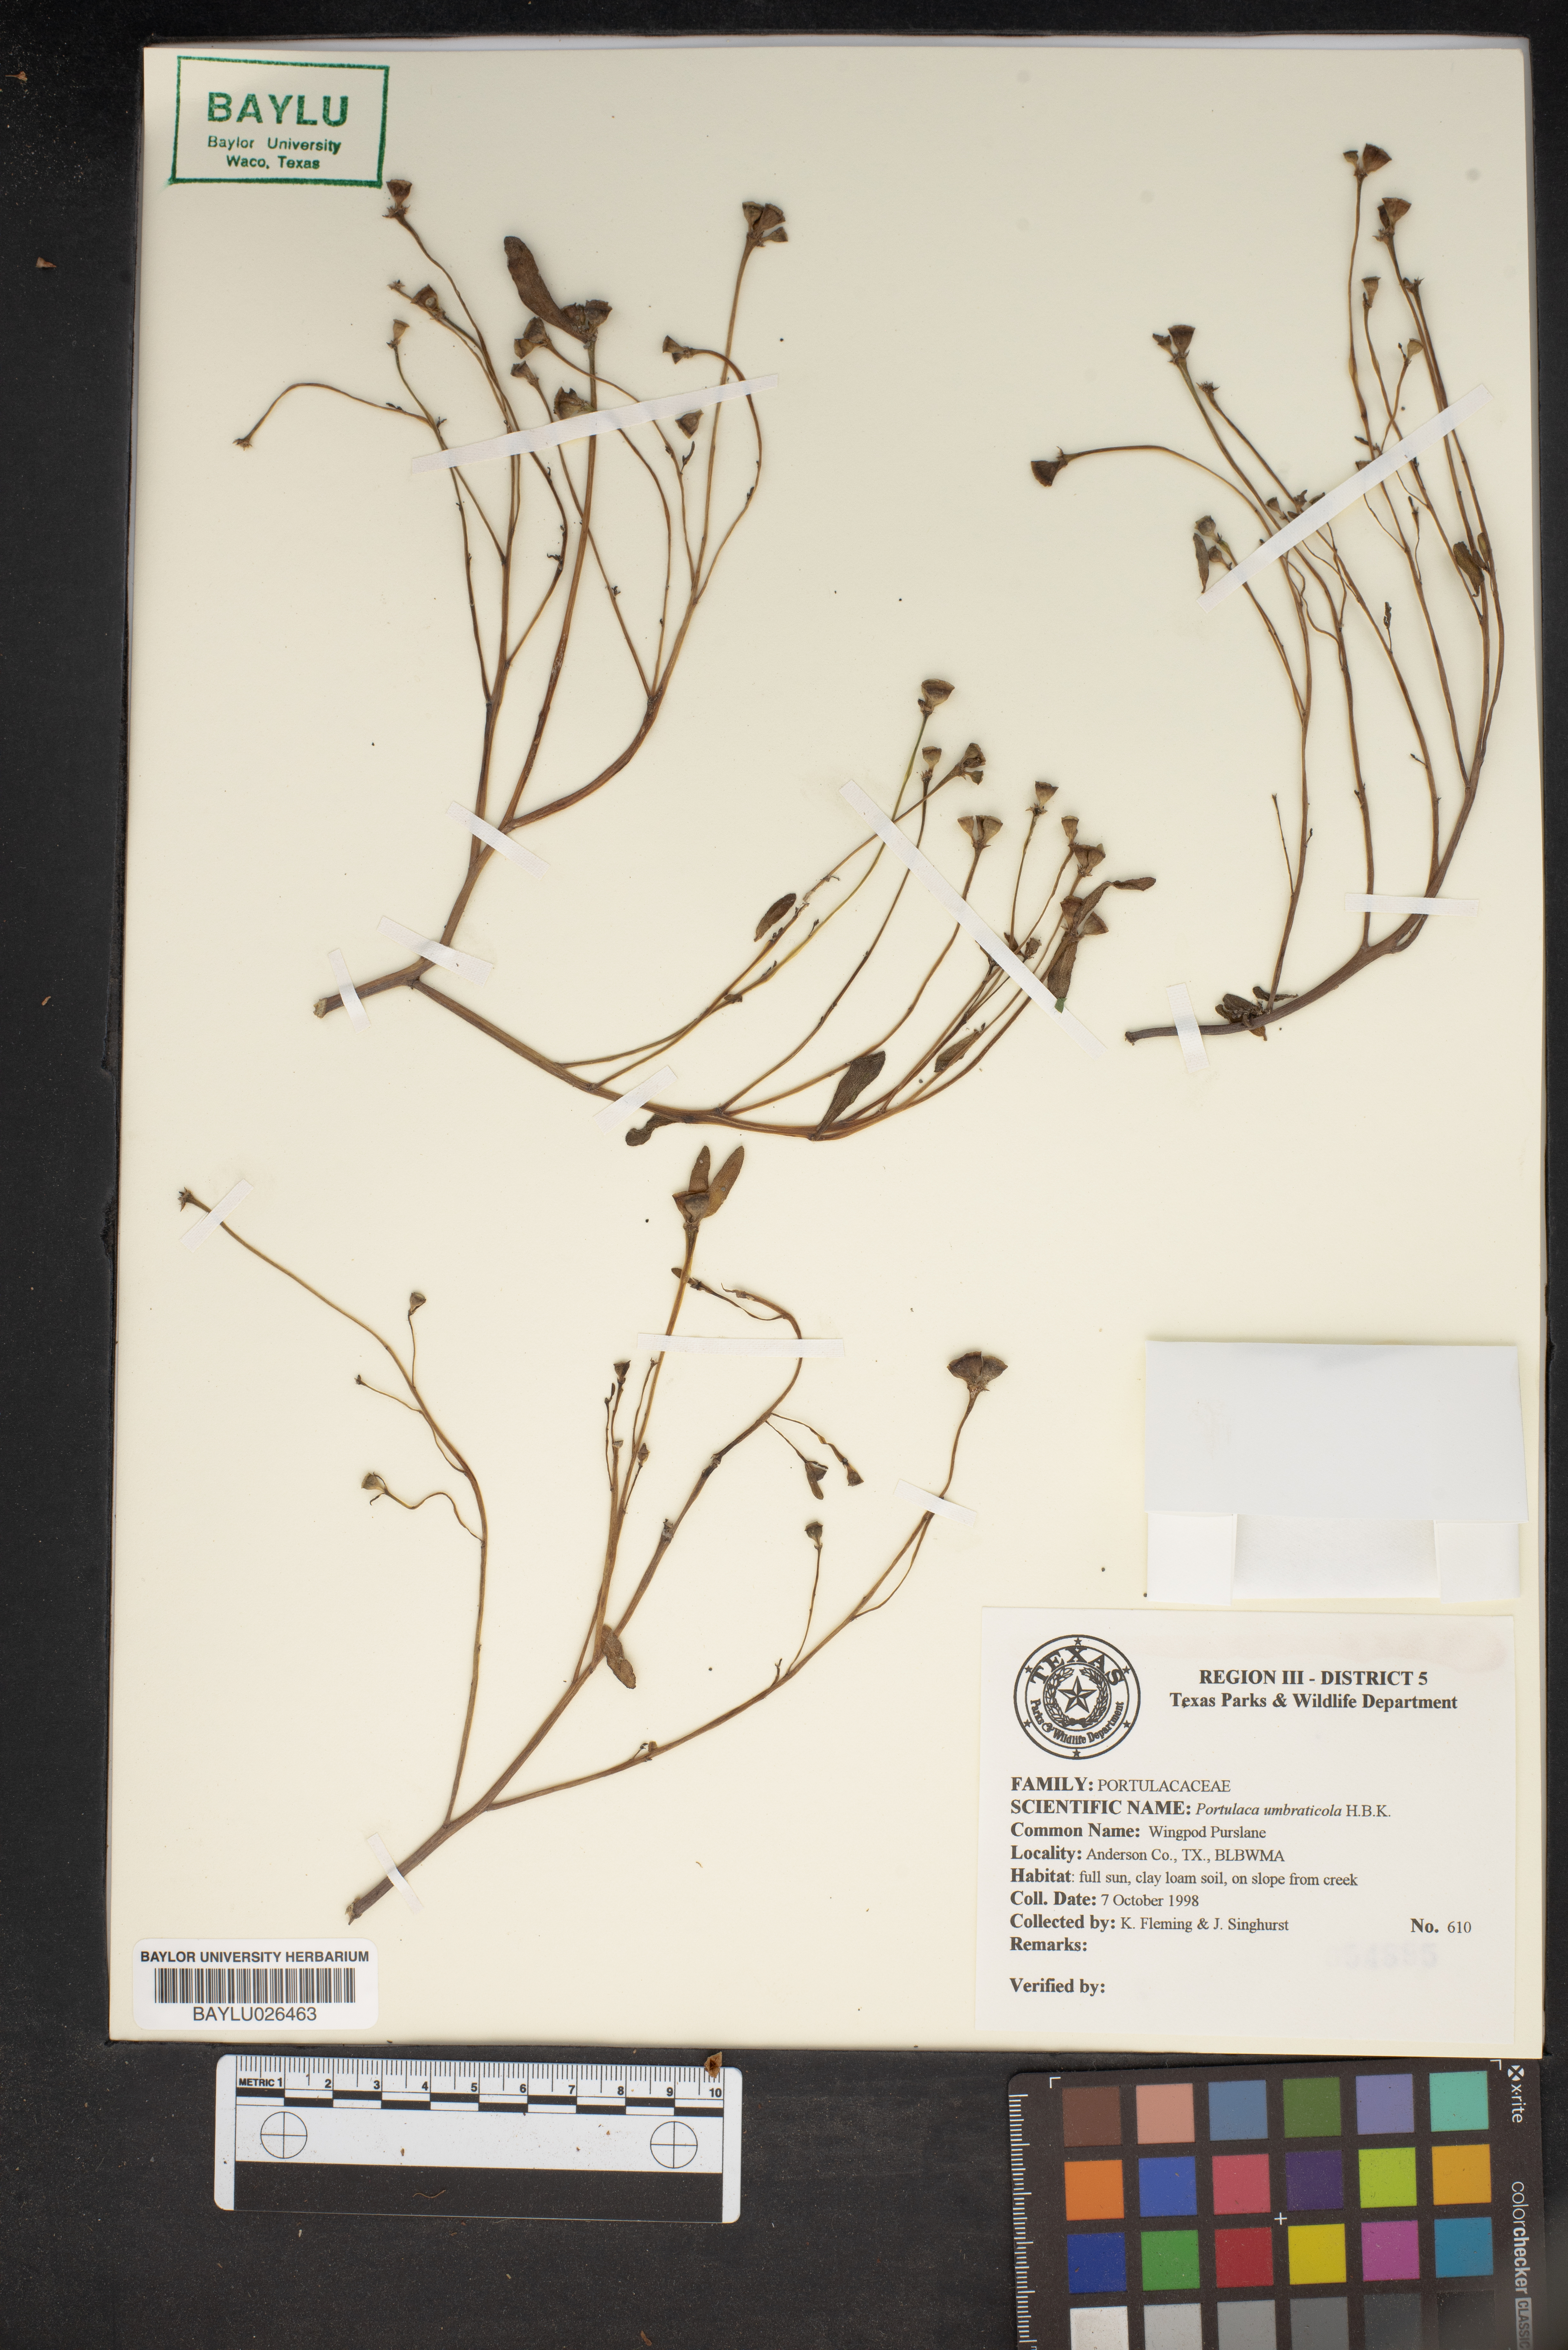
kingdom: Plantae
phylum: Tracheophyta
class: Magnoliopsida
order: Caryophyllales
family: Portulacaceae
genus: Portulaca
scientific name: Portulaca umbraticola
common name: Wingpod purslane
